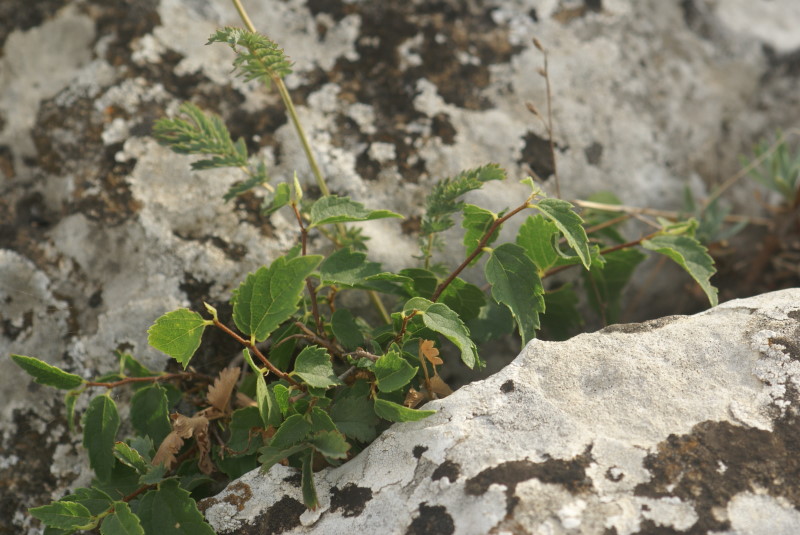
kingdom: Plantae
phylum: Tracheophyta
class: Magnoliopsida
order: Fagales
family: Betulaceae
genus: Carpinus
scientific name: Carpinus
